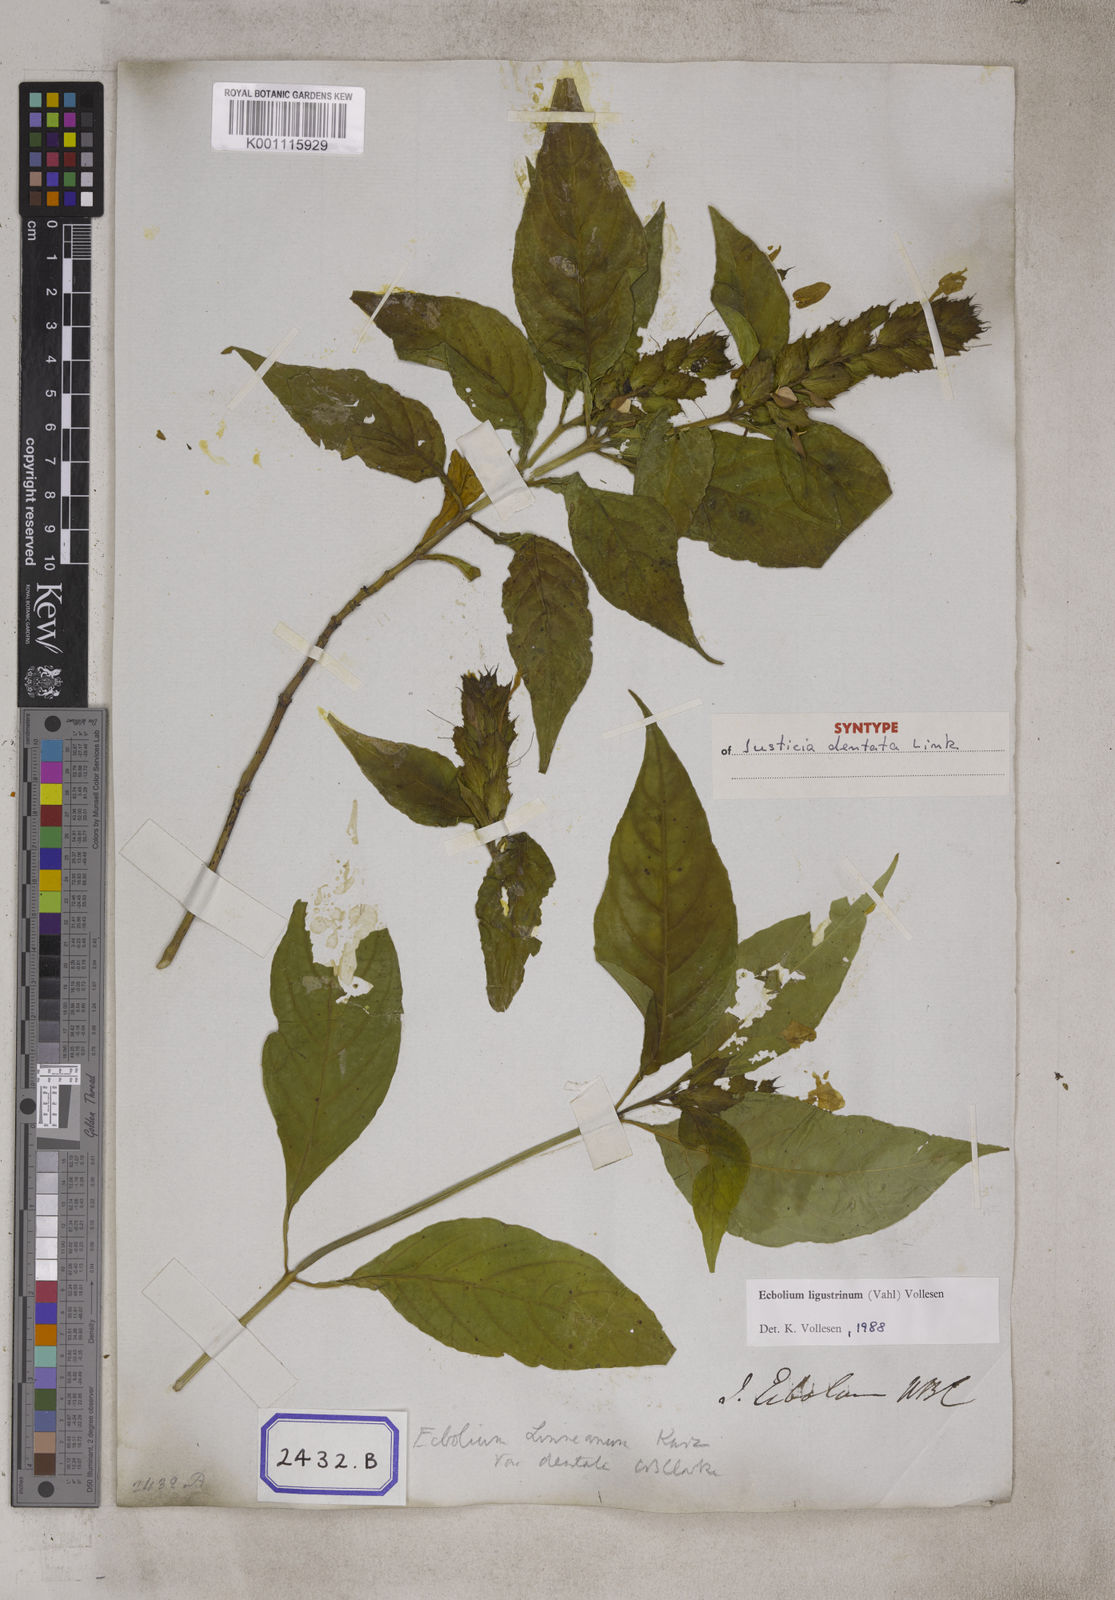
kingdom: Plantae
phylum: Tracheophyta
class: Magnoliopsida
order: Lamiales
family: Acanthaceae
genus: Ecbolium
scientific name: Ecbolium ligustrinum
